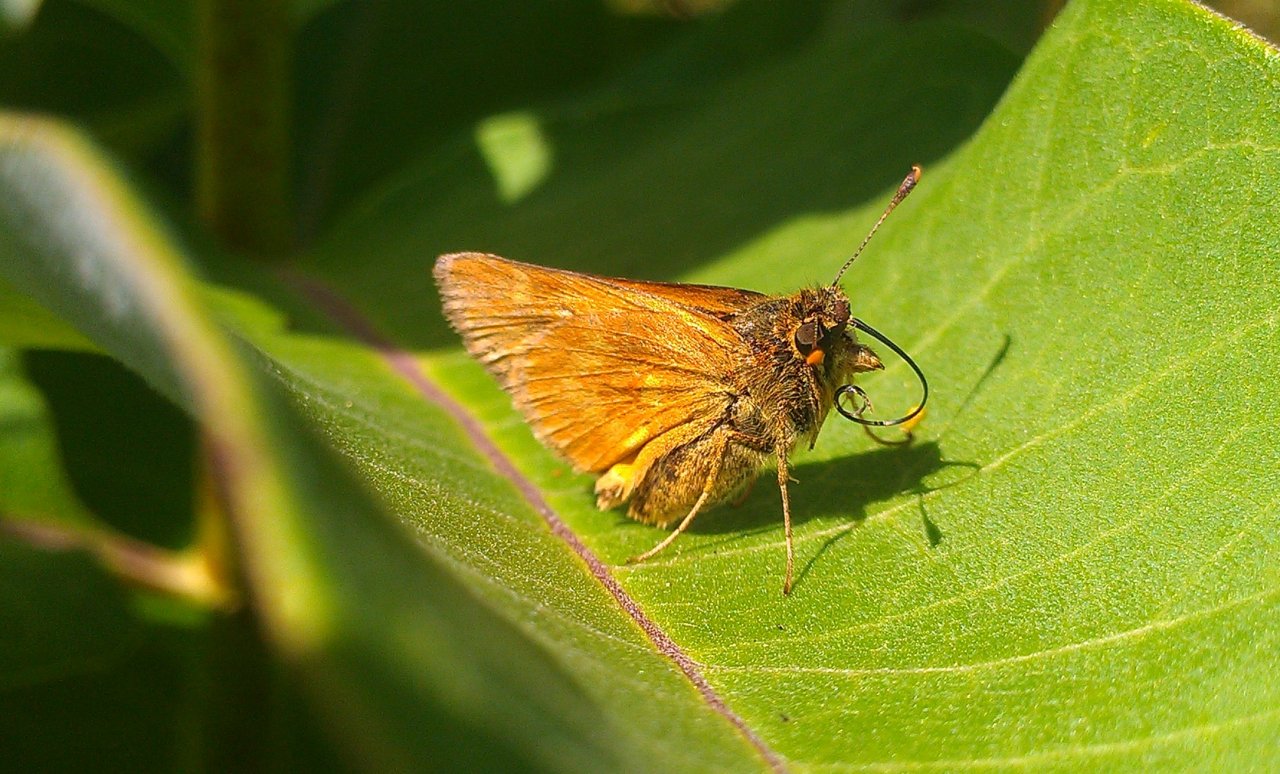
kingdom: Animalia
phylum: Arthropoda
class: Insecta
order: Lepidoptera
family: Hesperiidae
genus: Polites
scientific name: Polites
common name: Long Dash Skipper
